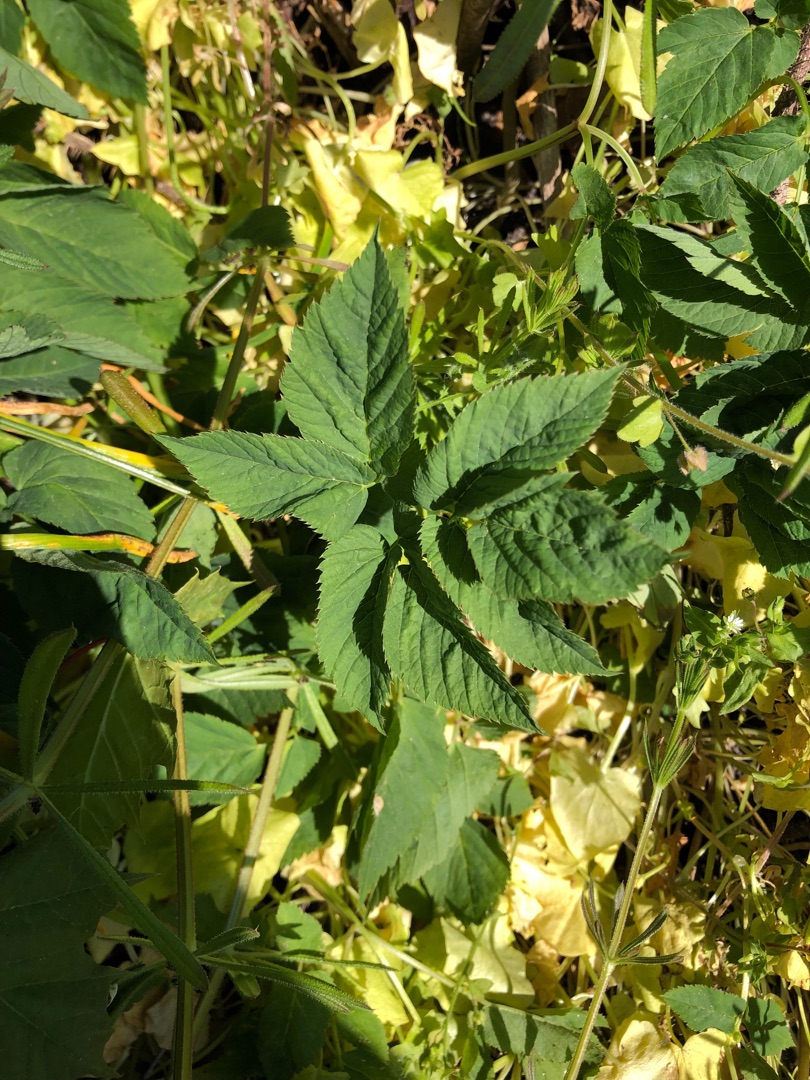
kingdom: Plantae
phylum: Tracheophyta
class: Magnoliopsida
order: Apiales
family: Apiaceae
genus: Aegopodium
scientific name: Aegopodium podagraria
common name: Skvalderkål
